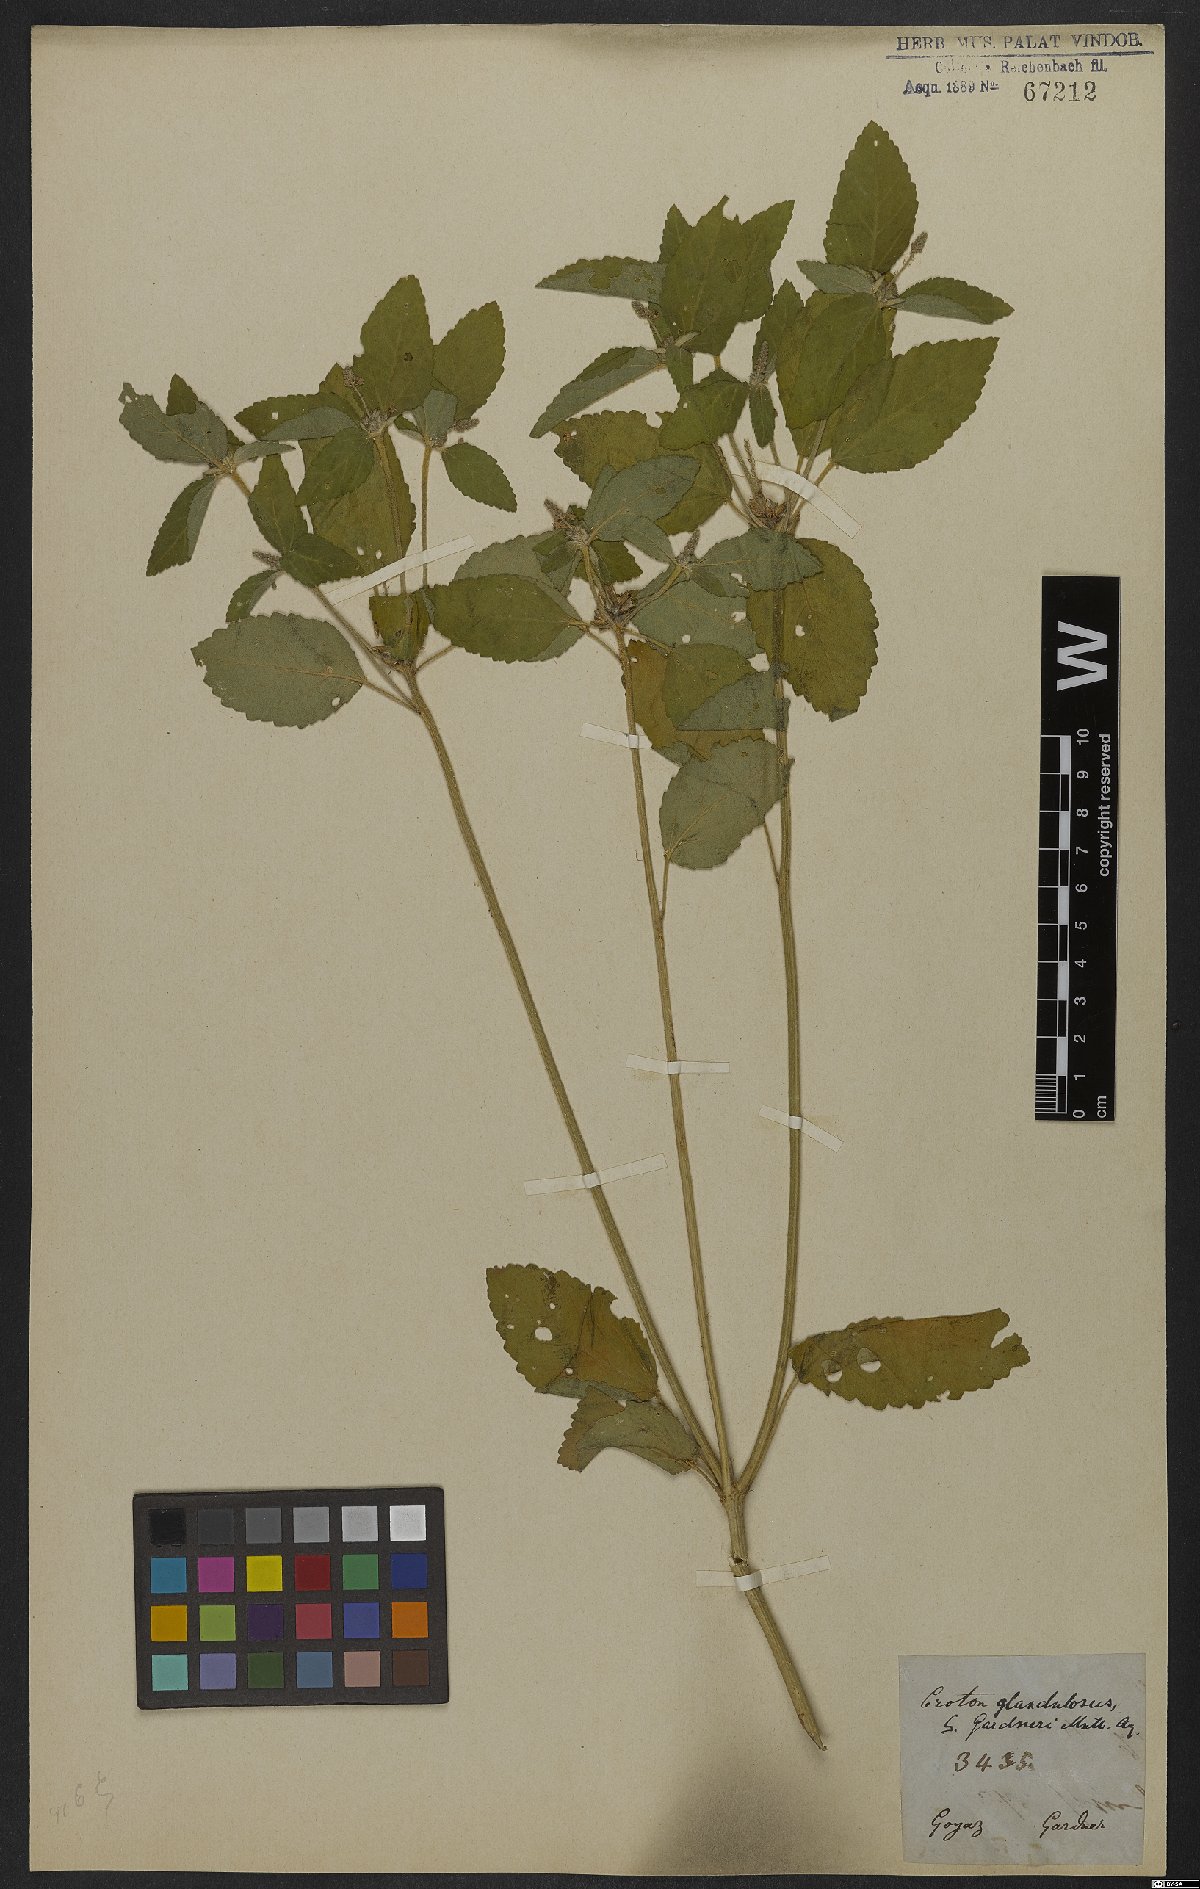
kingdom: Plantae
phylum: Tracheophyta
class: Magnoliopsida
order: Malpighiales
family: Euphorbiaceae
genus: Croton
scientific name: Croton glandulosus
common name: Tropic croton
